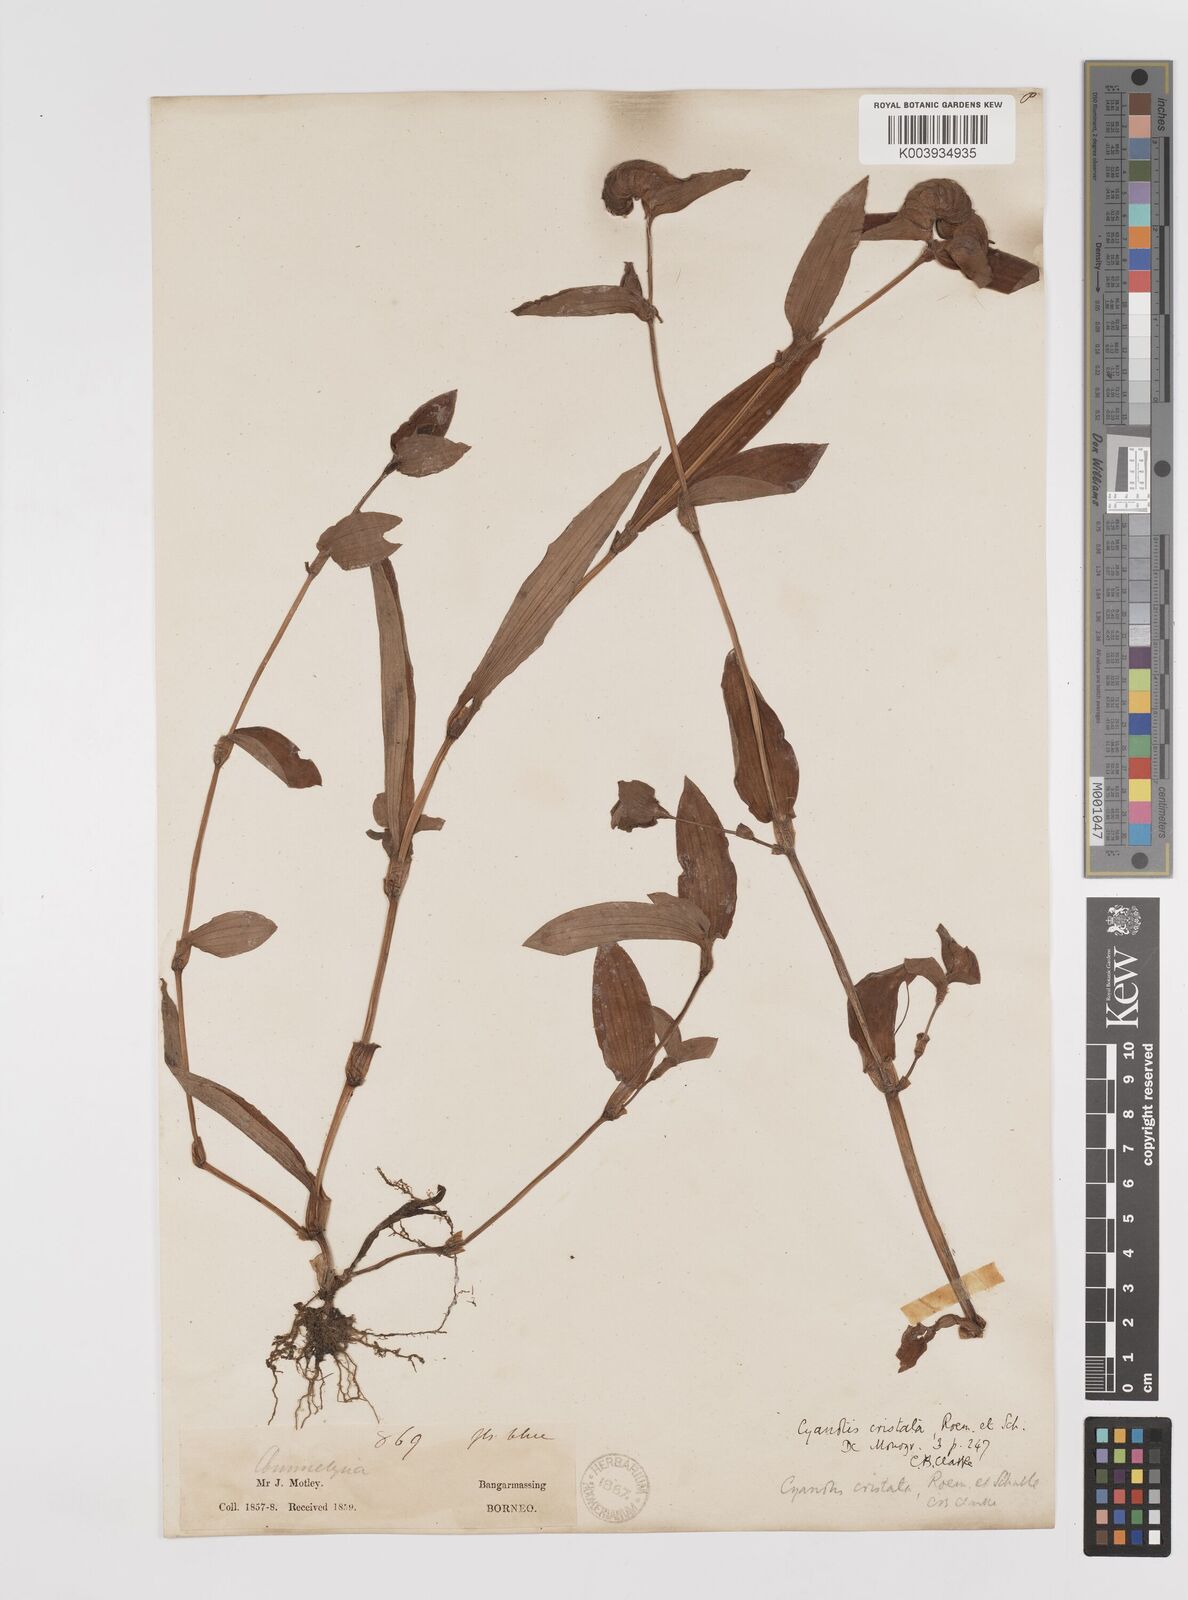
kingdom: Plantae
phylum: Tracheophyta
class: Liliopsida
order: Commelinales
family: Commelinaceae
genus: Cyanotis
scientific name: Cyanotis cristata
